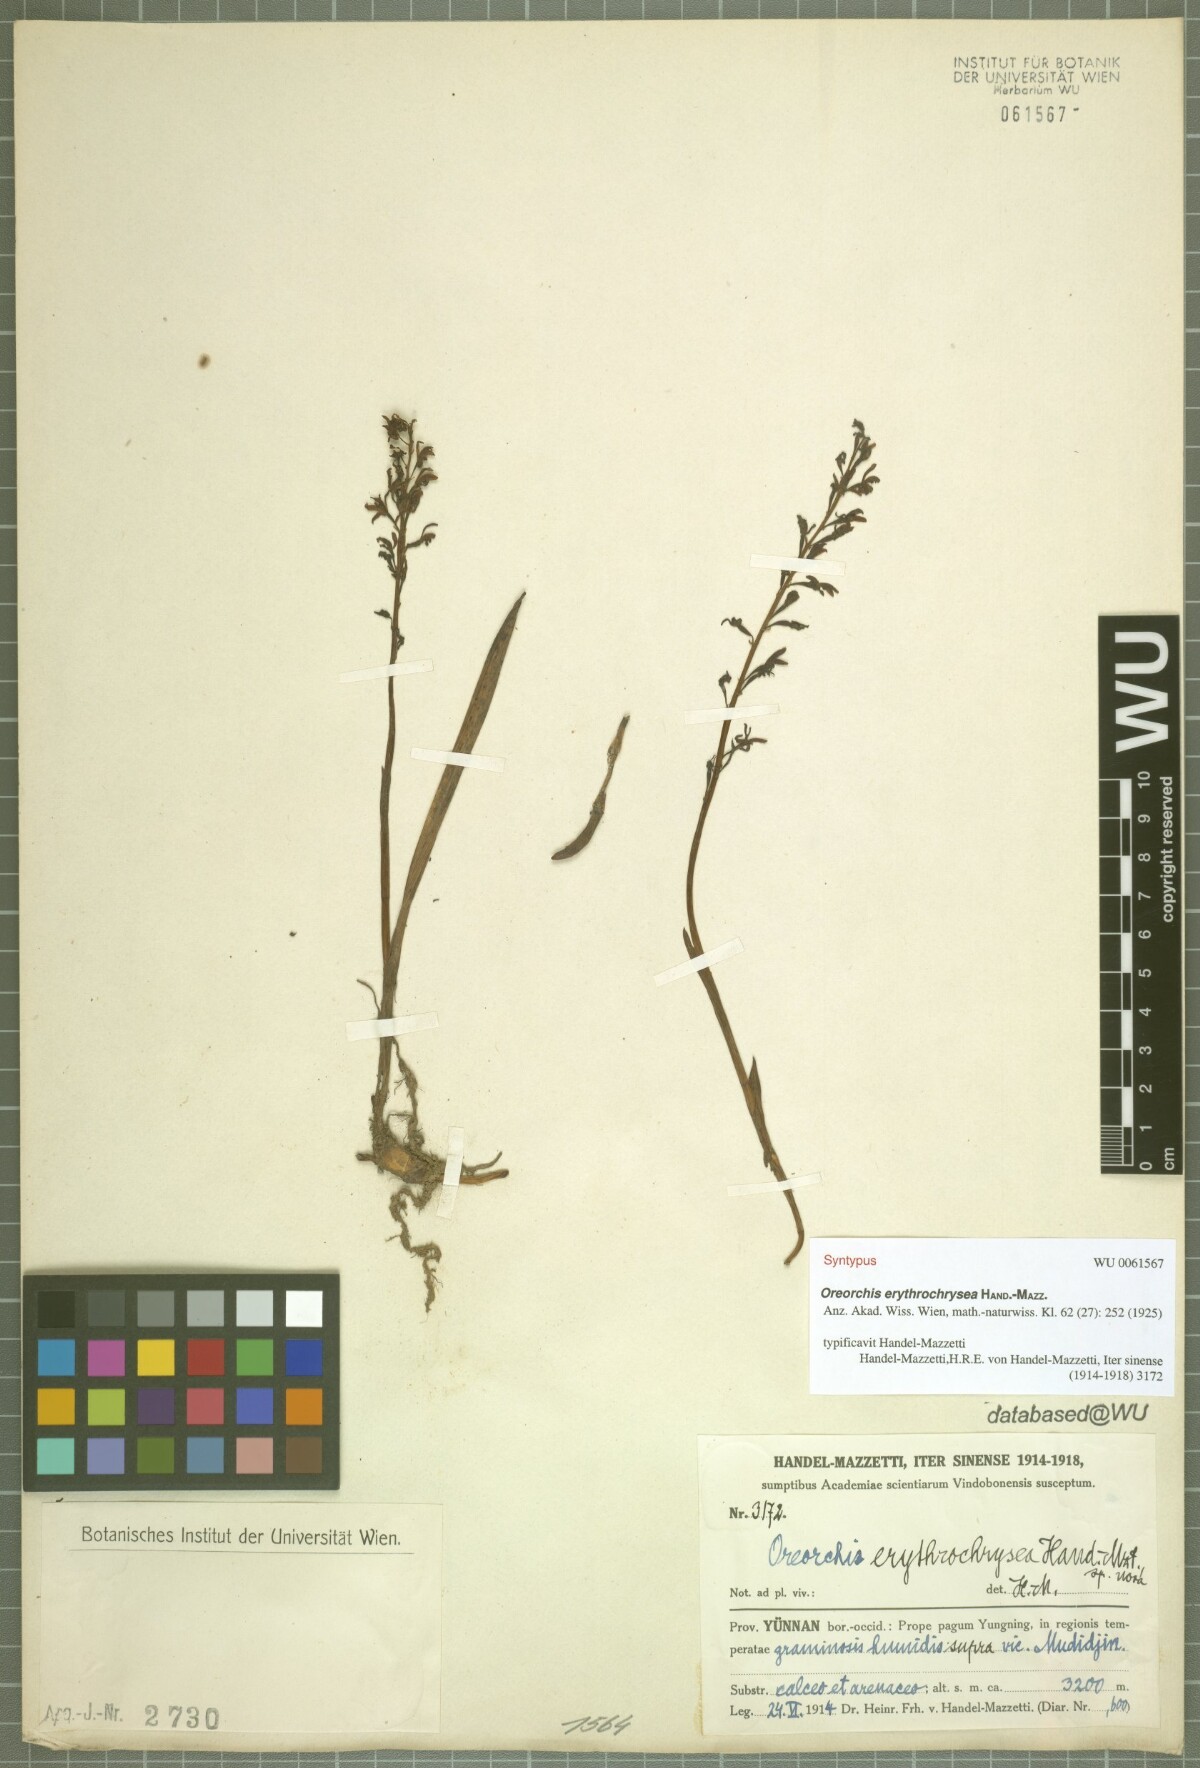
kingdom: Plantae
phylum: Tracheophyta
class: Liliopsida
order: Asparagales
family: Orchidaceae
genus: Oreorchis
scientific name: Oreorchis erythrochrysea
